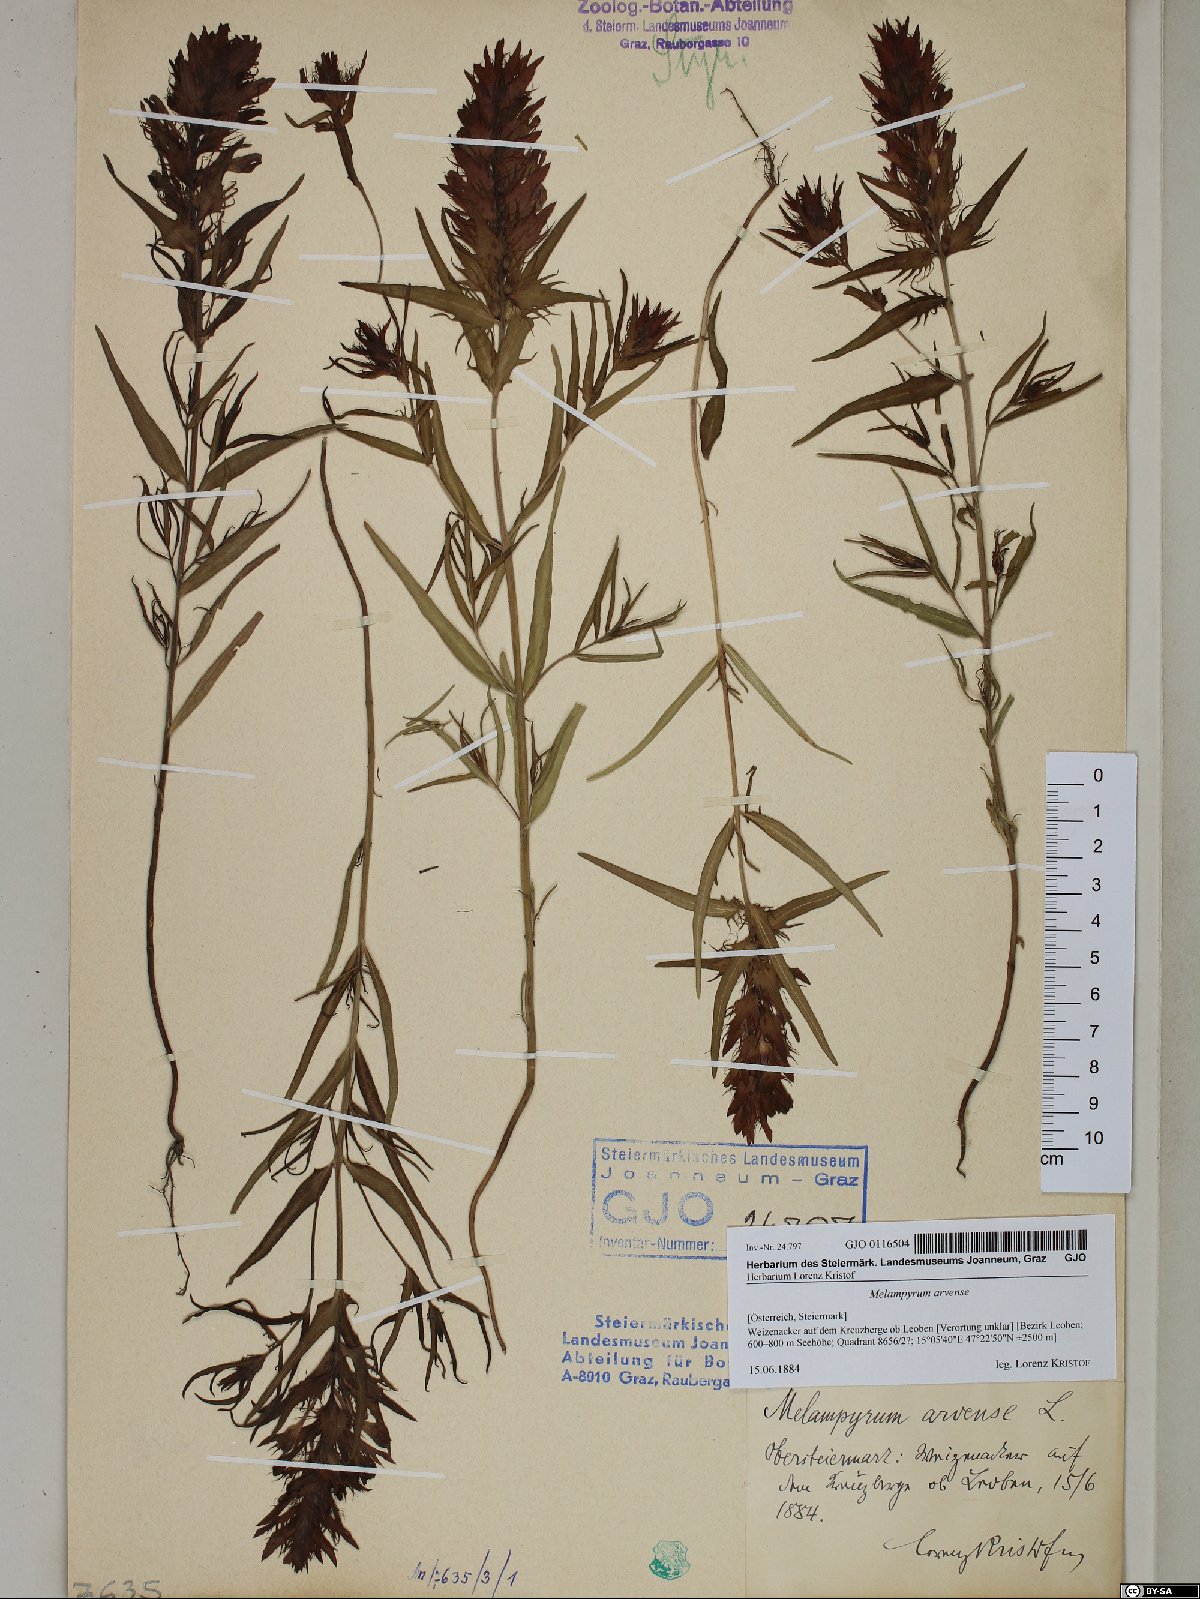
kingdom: Plantae
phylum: Tracheophyta
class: Magnoliopsida
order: Lamiales
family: Orobanchaceae
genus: Melampyrum
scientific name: Melampyrum arvense
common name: Field cow-wheat
